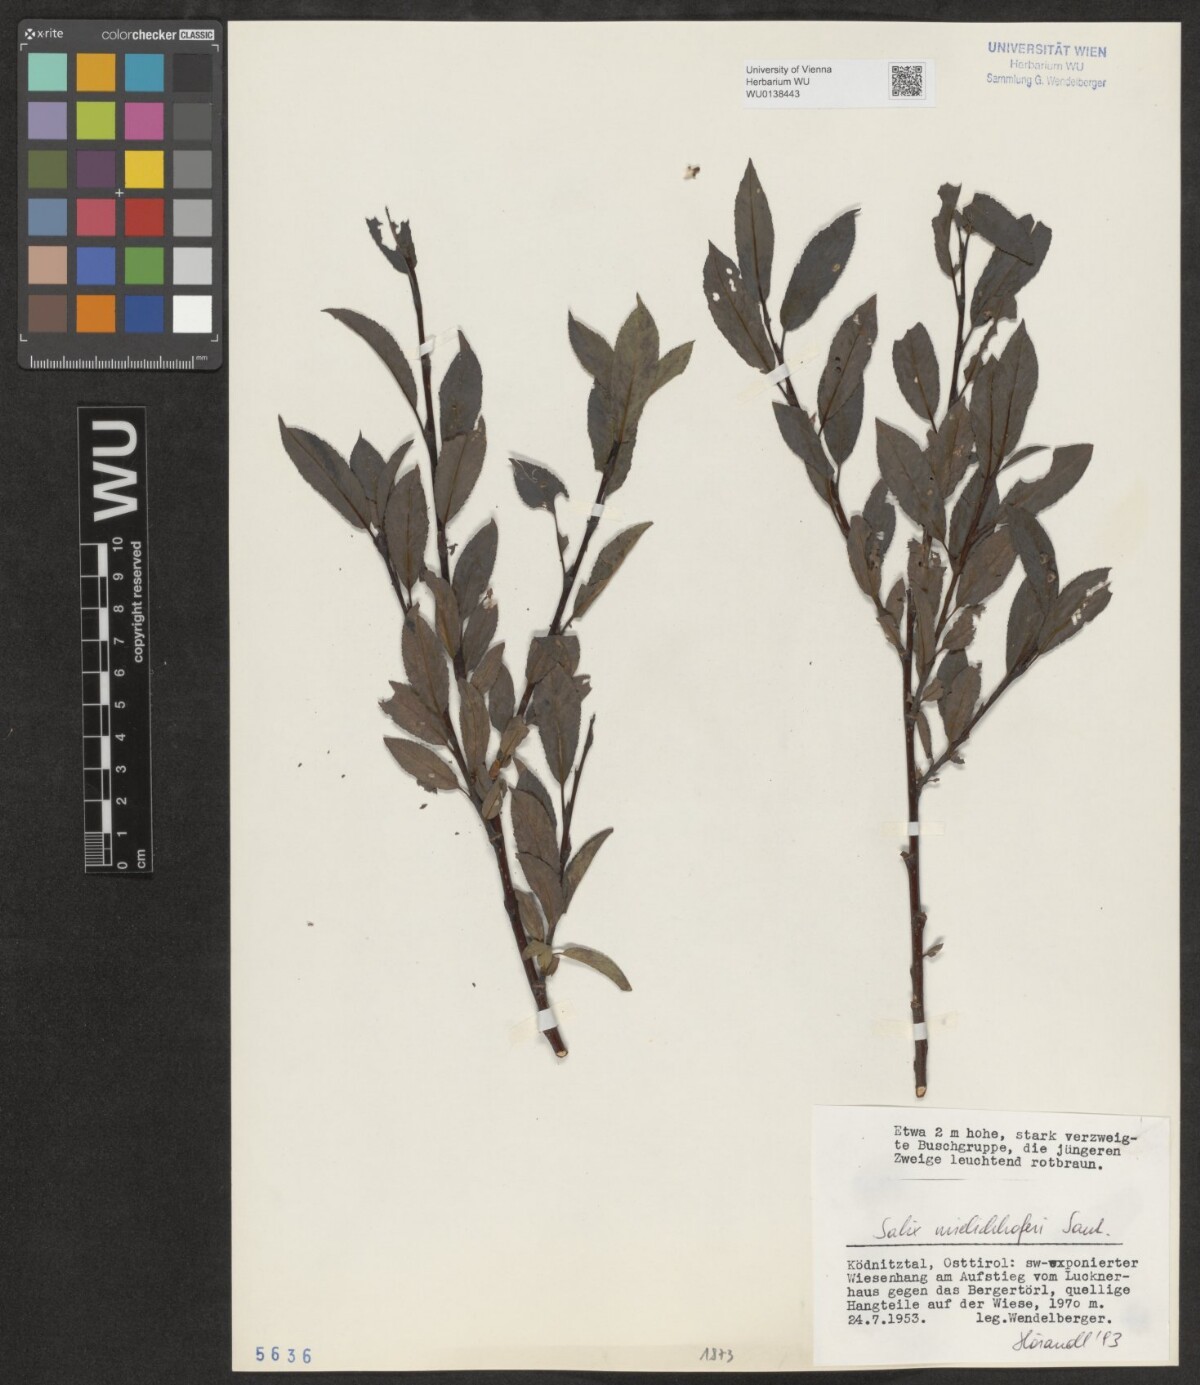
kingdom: Plantae
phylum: Tracheophyta
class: Magnoliopsida
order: Malpighiales
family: Salicaceae
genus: Salix
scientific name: Salix mielichhoferi
